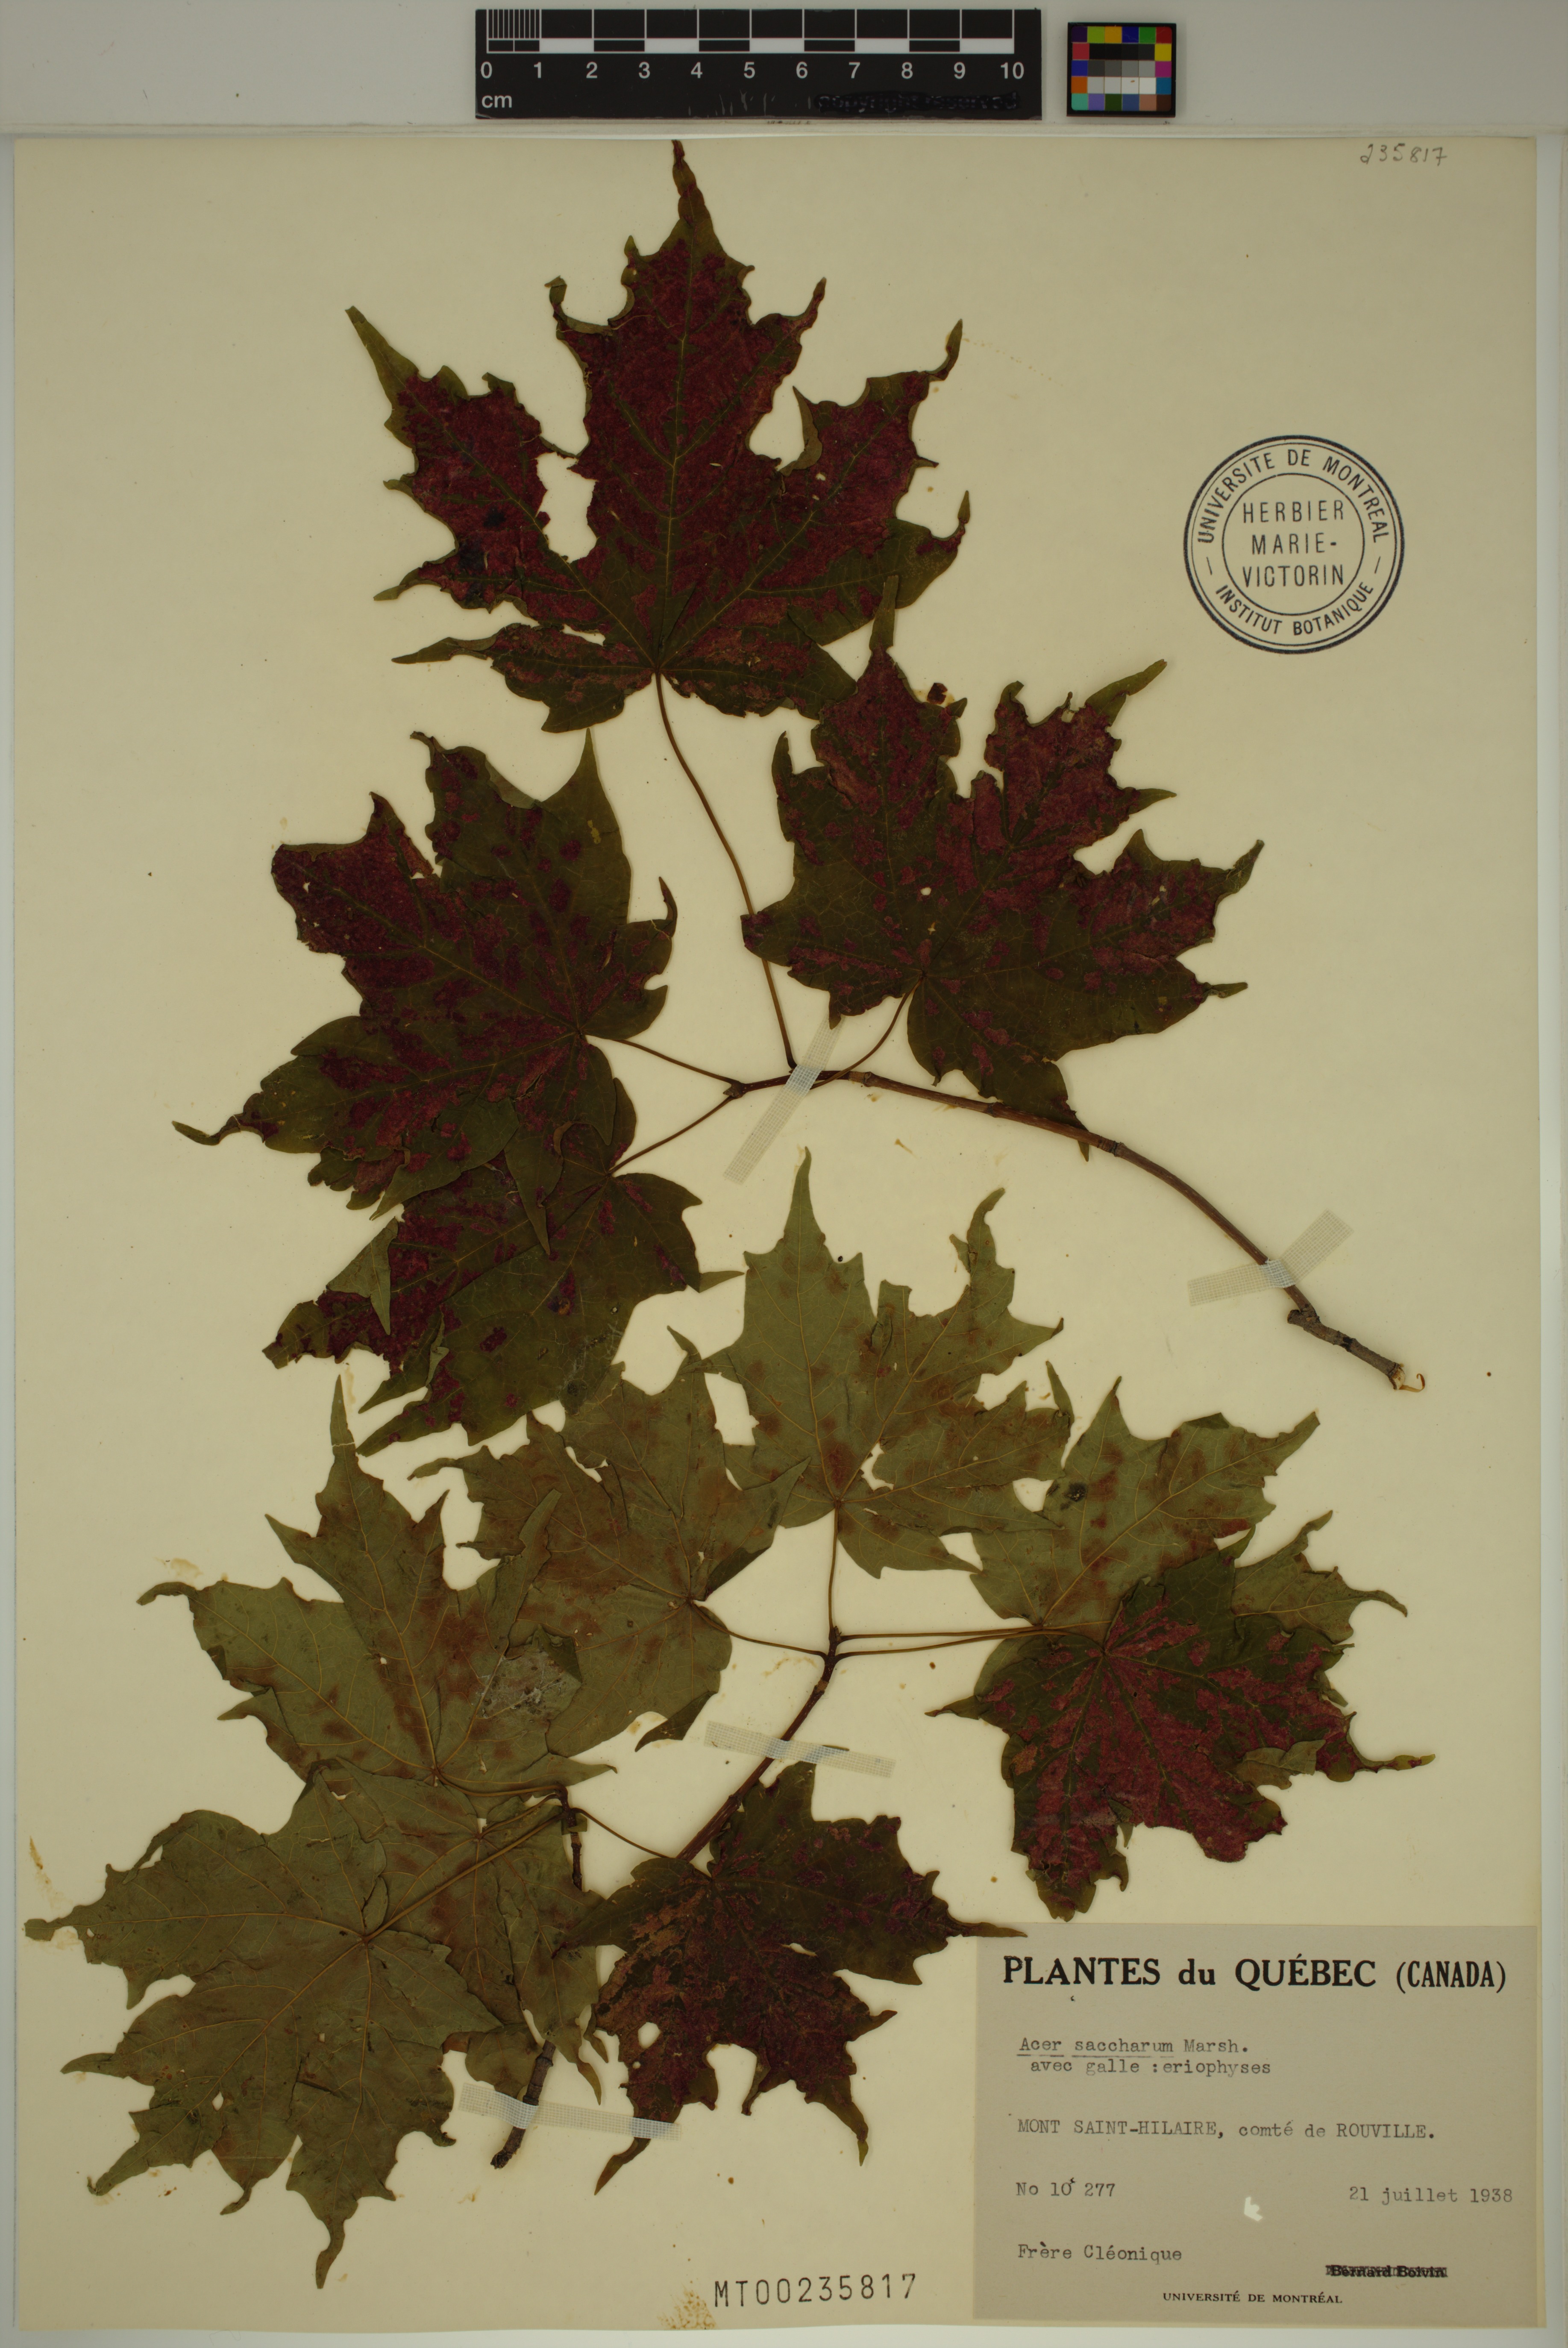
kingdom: Plantae
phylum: Tracheophyta
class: Magnoliopsida
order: Sapindales
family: Sapindaceae
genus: Acer
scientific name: Acer saccharum
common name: Sugar maple
